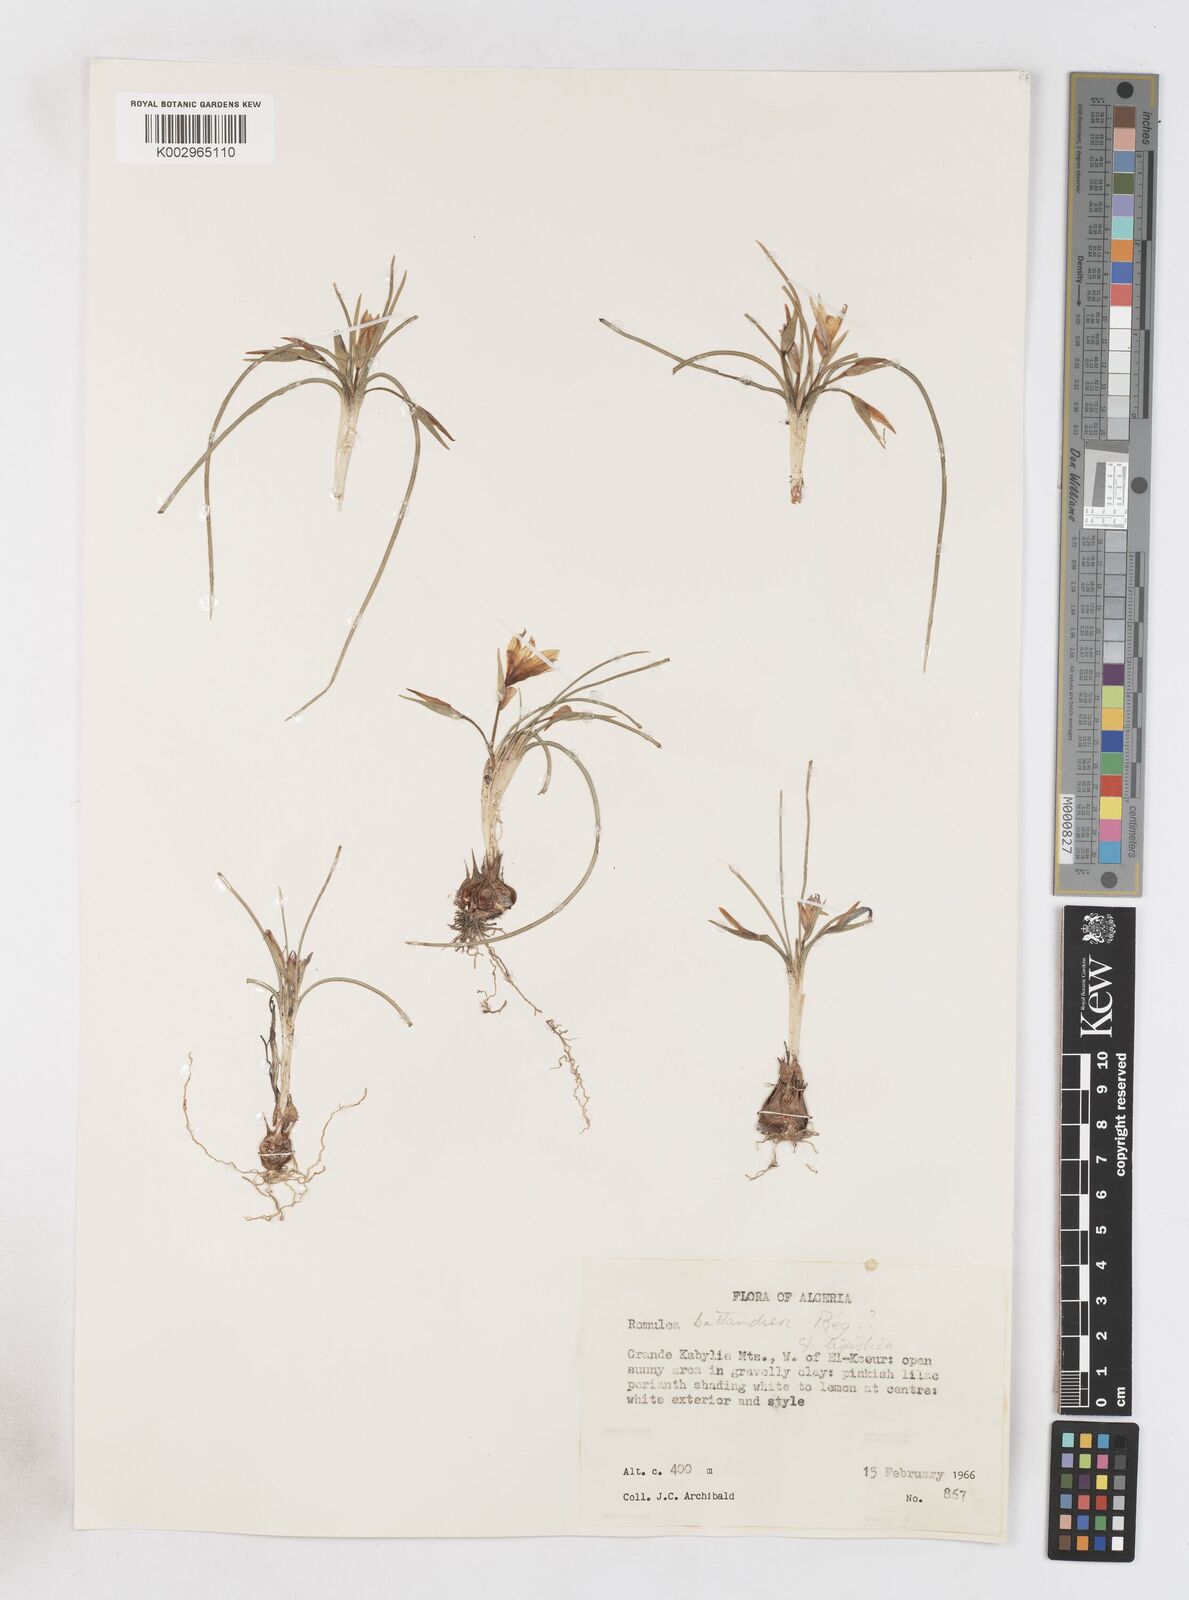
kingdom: Plantae
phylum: Tracheophyta
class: Liliopsida
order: Asparagales
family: Iridaceae
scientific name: Iridaceae
